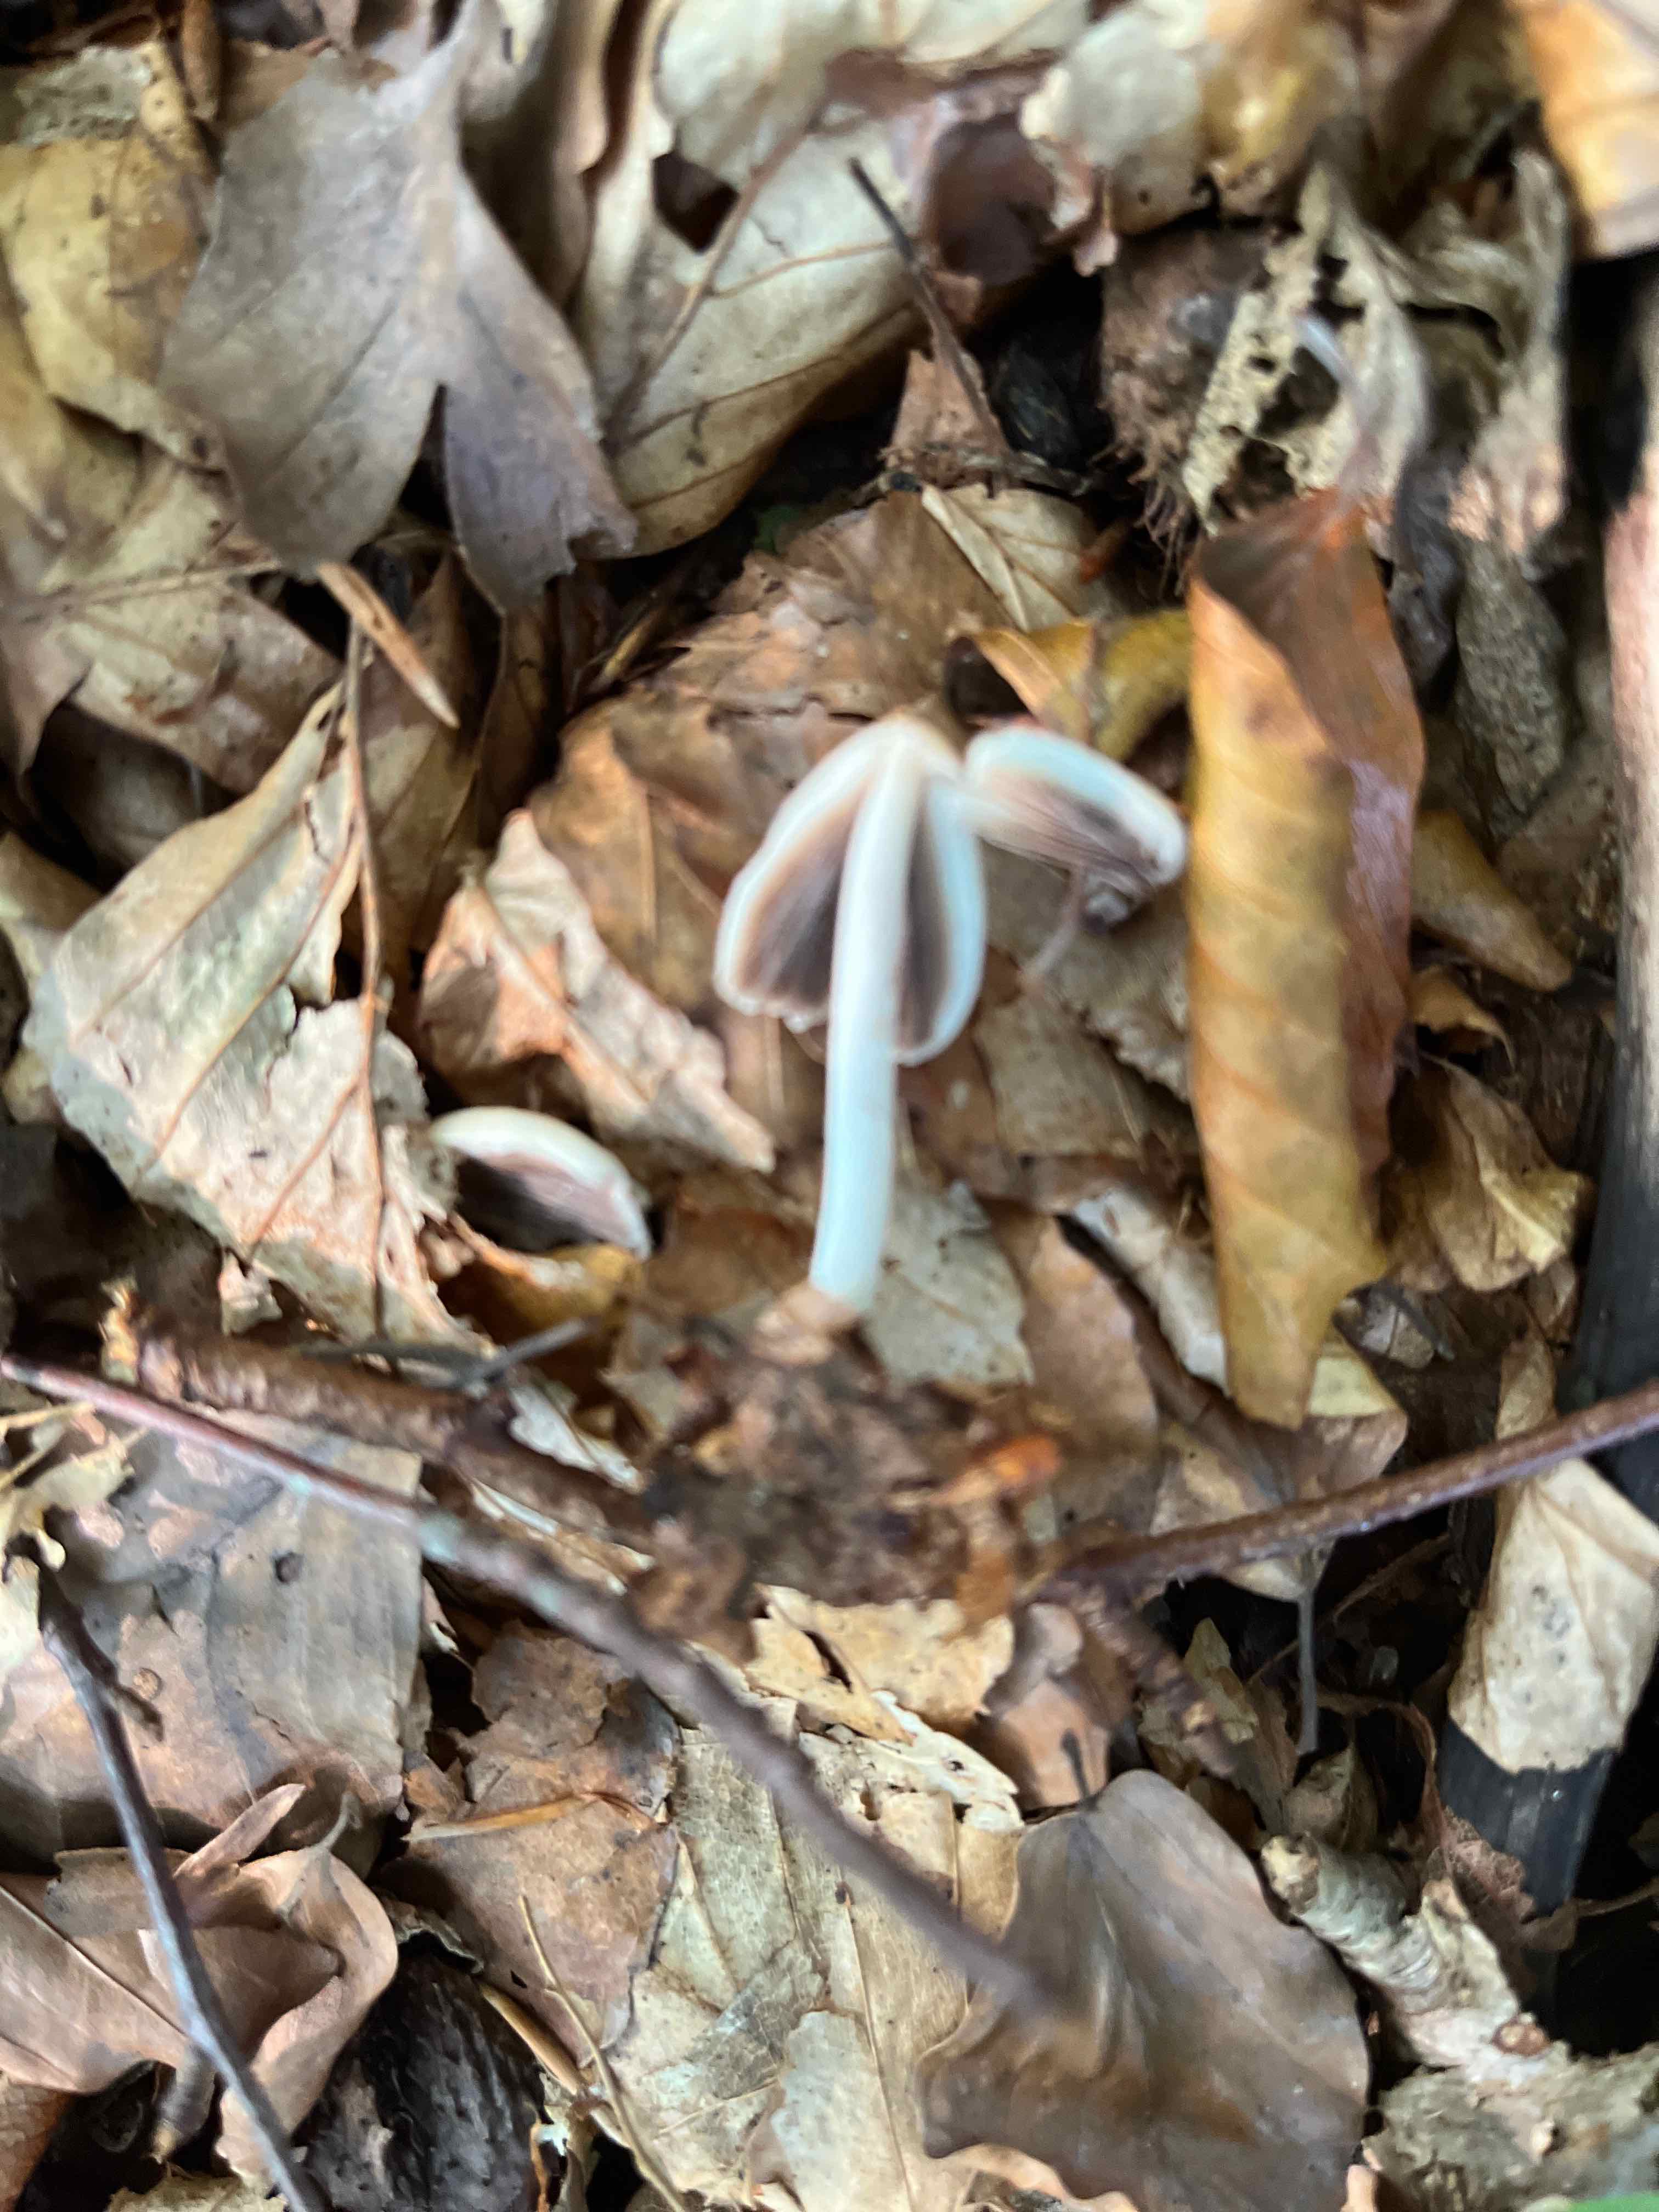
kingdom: Fungi
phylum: Basidiomycota
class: Agaricomycetes
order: Agaricales
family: Psathyrellaceae
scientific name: Psathyrellaceae
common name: mørkhatfamilien
